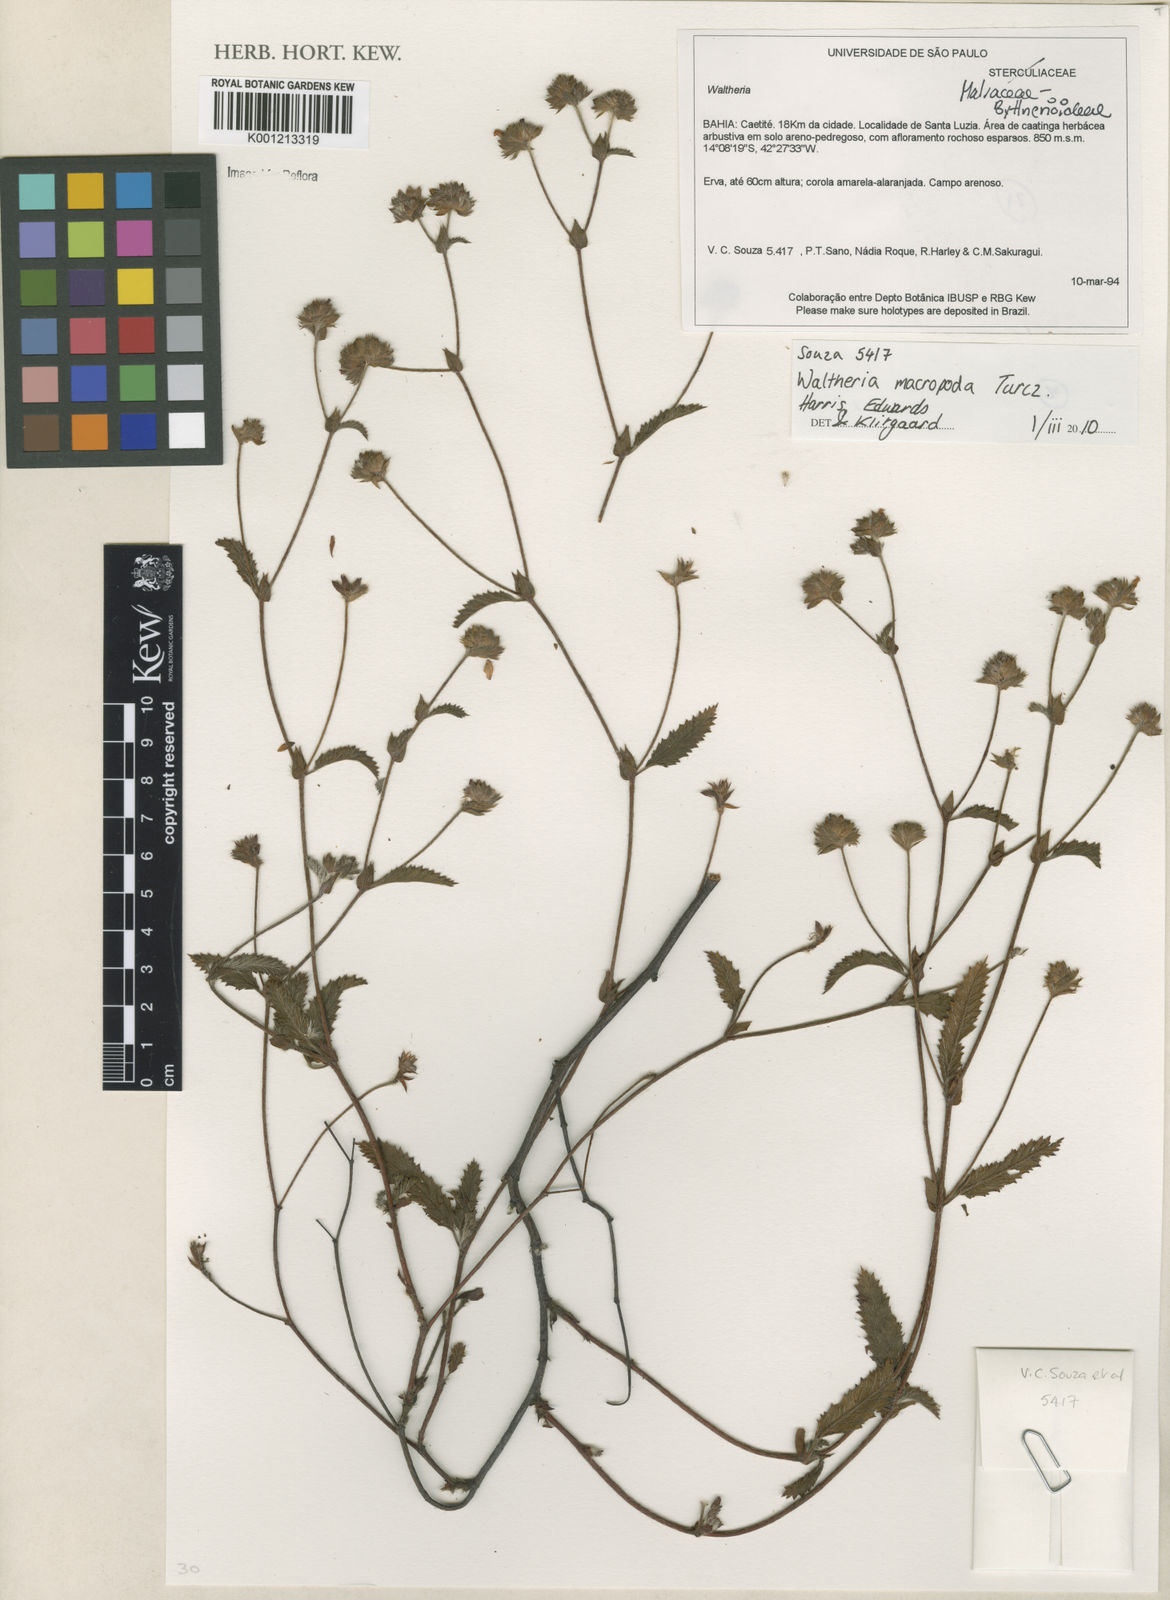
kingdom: Plantae
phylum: Tracheophyta
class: Magnoliopsida
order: Malvales
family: Malvaceae
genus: Waltheria
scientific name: Waltheria bracteosa
